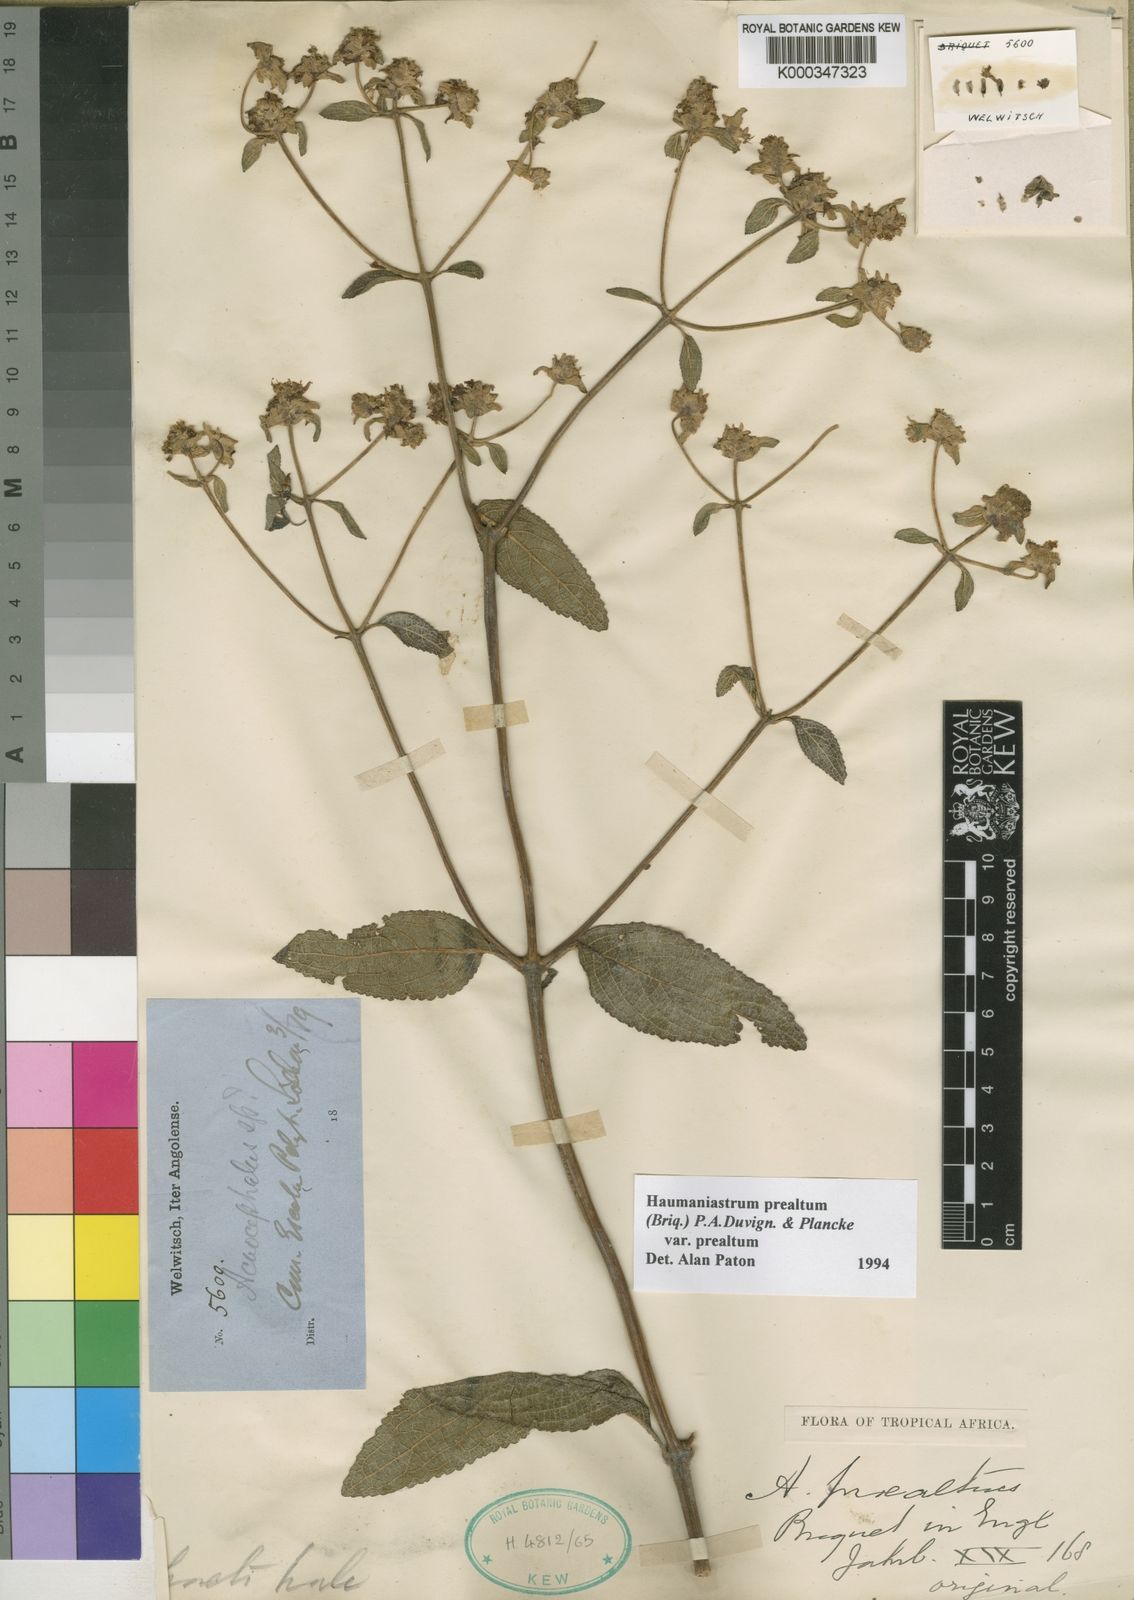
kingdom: Plantae
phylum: Tracheophyta
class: Magnoliopsida
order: Lamiales
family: Lamiaceae
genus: Haumaniastrum
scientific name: Haumaniastrum
